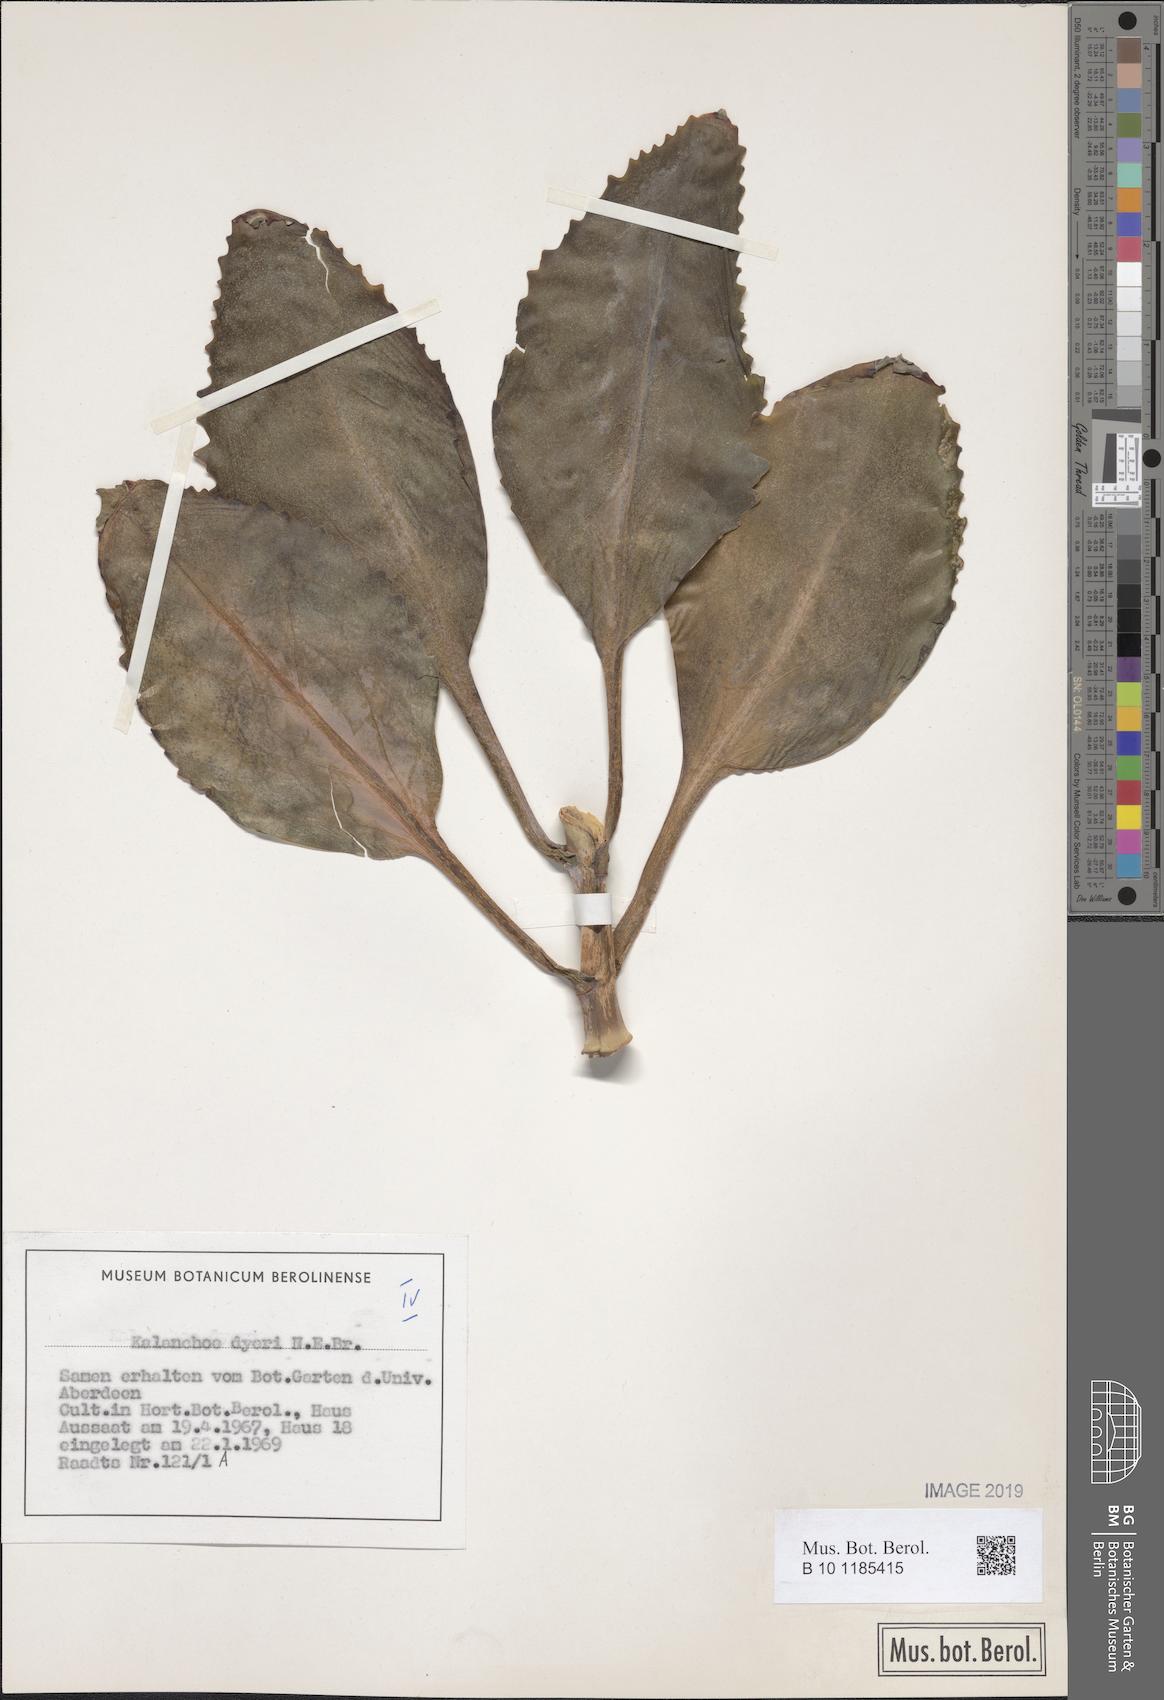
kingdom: Plantae
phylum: Tracheophyta
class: Magnoliopsida
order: Saxifragales
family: Crassulaceae
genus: Kalanchoe
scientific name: Kalanchoe dyeri
